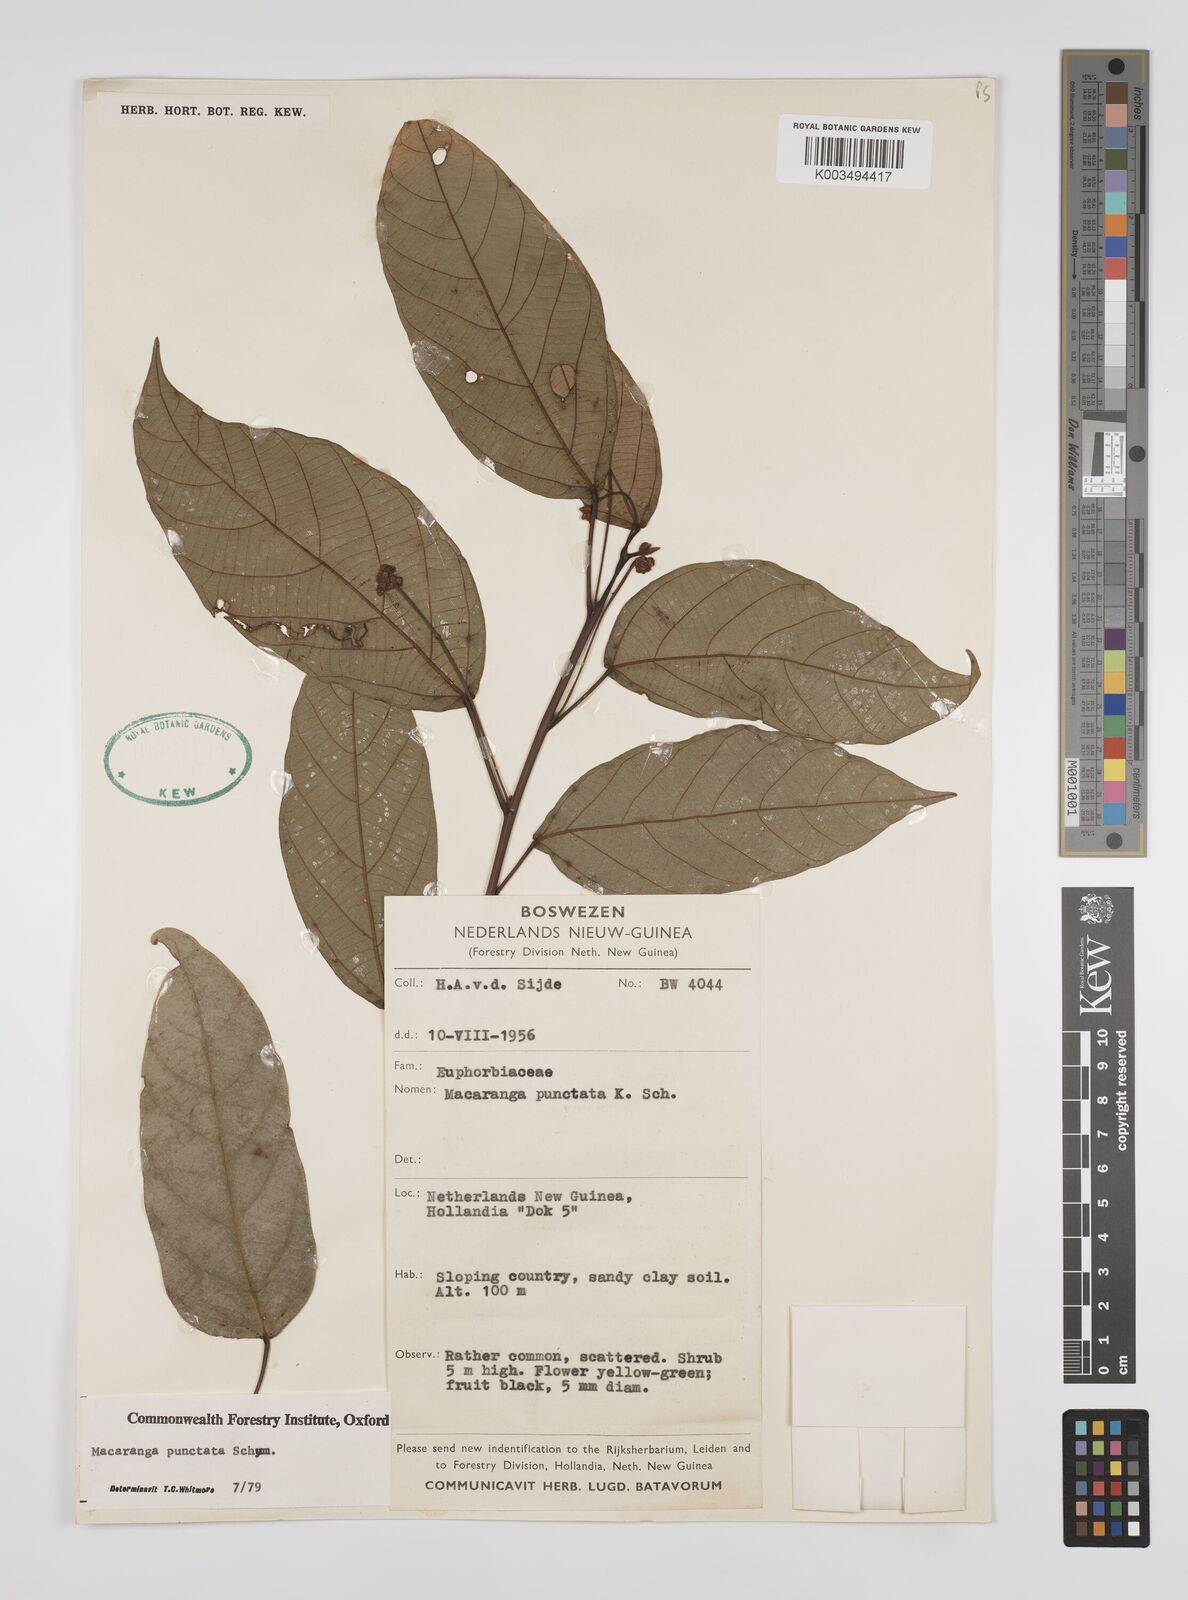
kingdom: Plantae
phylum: Tracheophyta
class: Magnoliopsida
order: Malpighiales
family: Euphorbiaceae
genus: Macaranga
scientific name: Macaranga punctata
